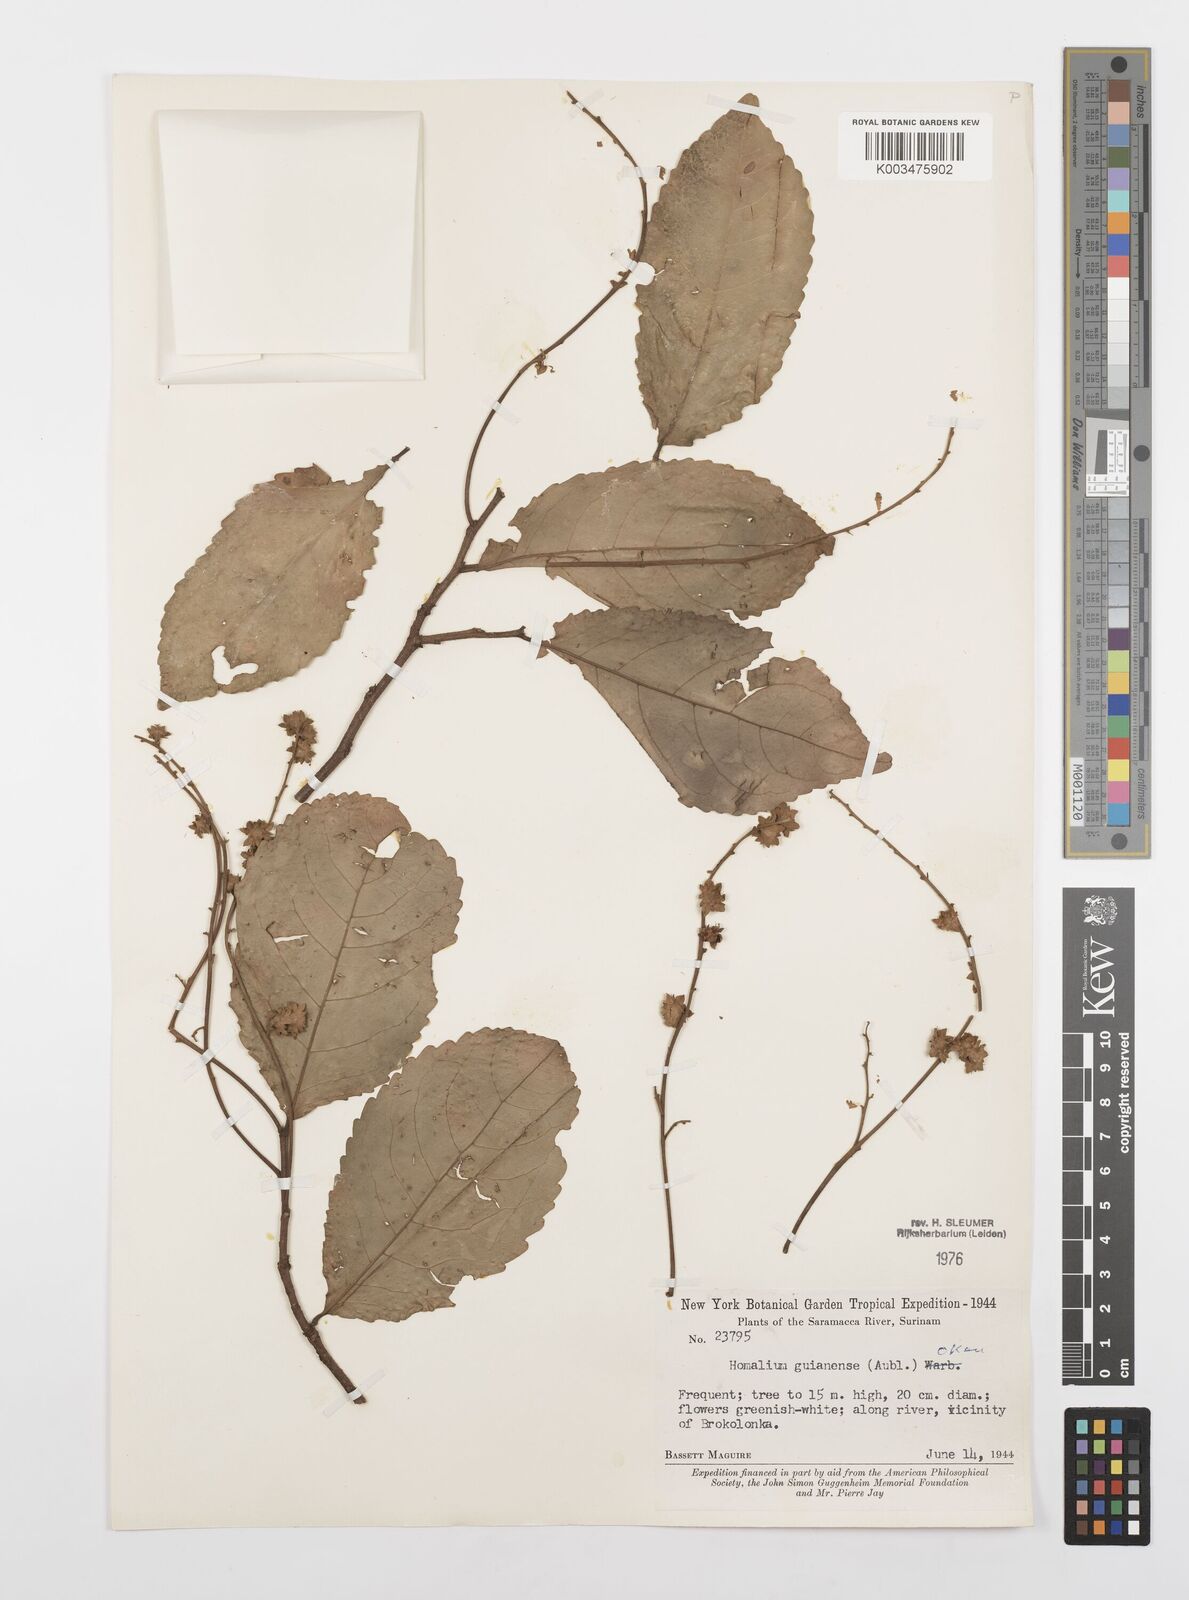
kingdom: Plantae
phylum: Tracheophyta
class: Magnoliopsida
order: Malpighiales
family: Salicaceae
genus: Homalium
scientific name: Homalium guianense
